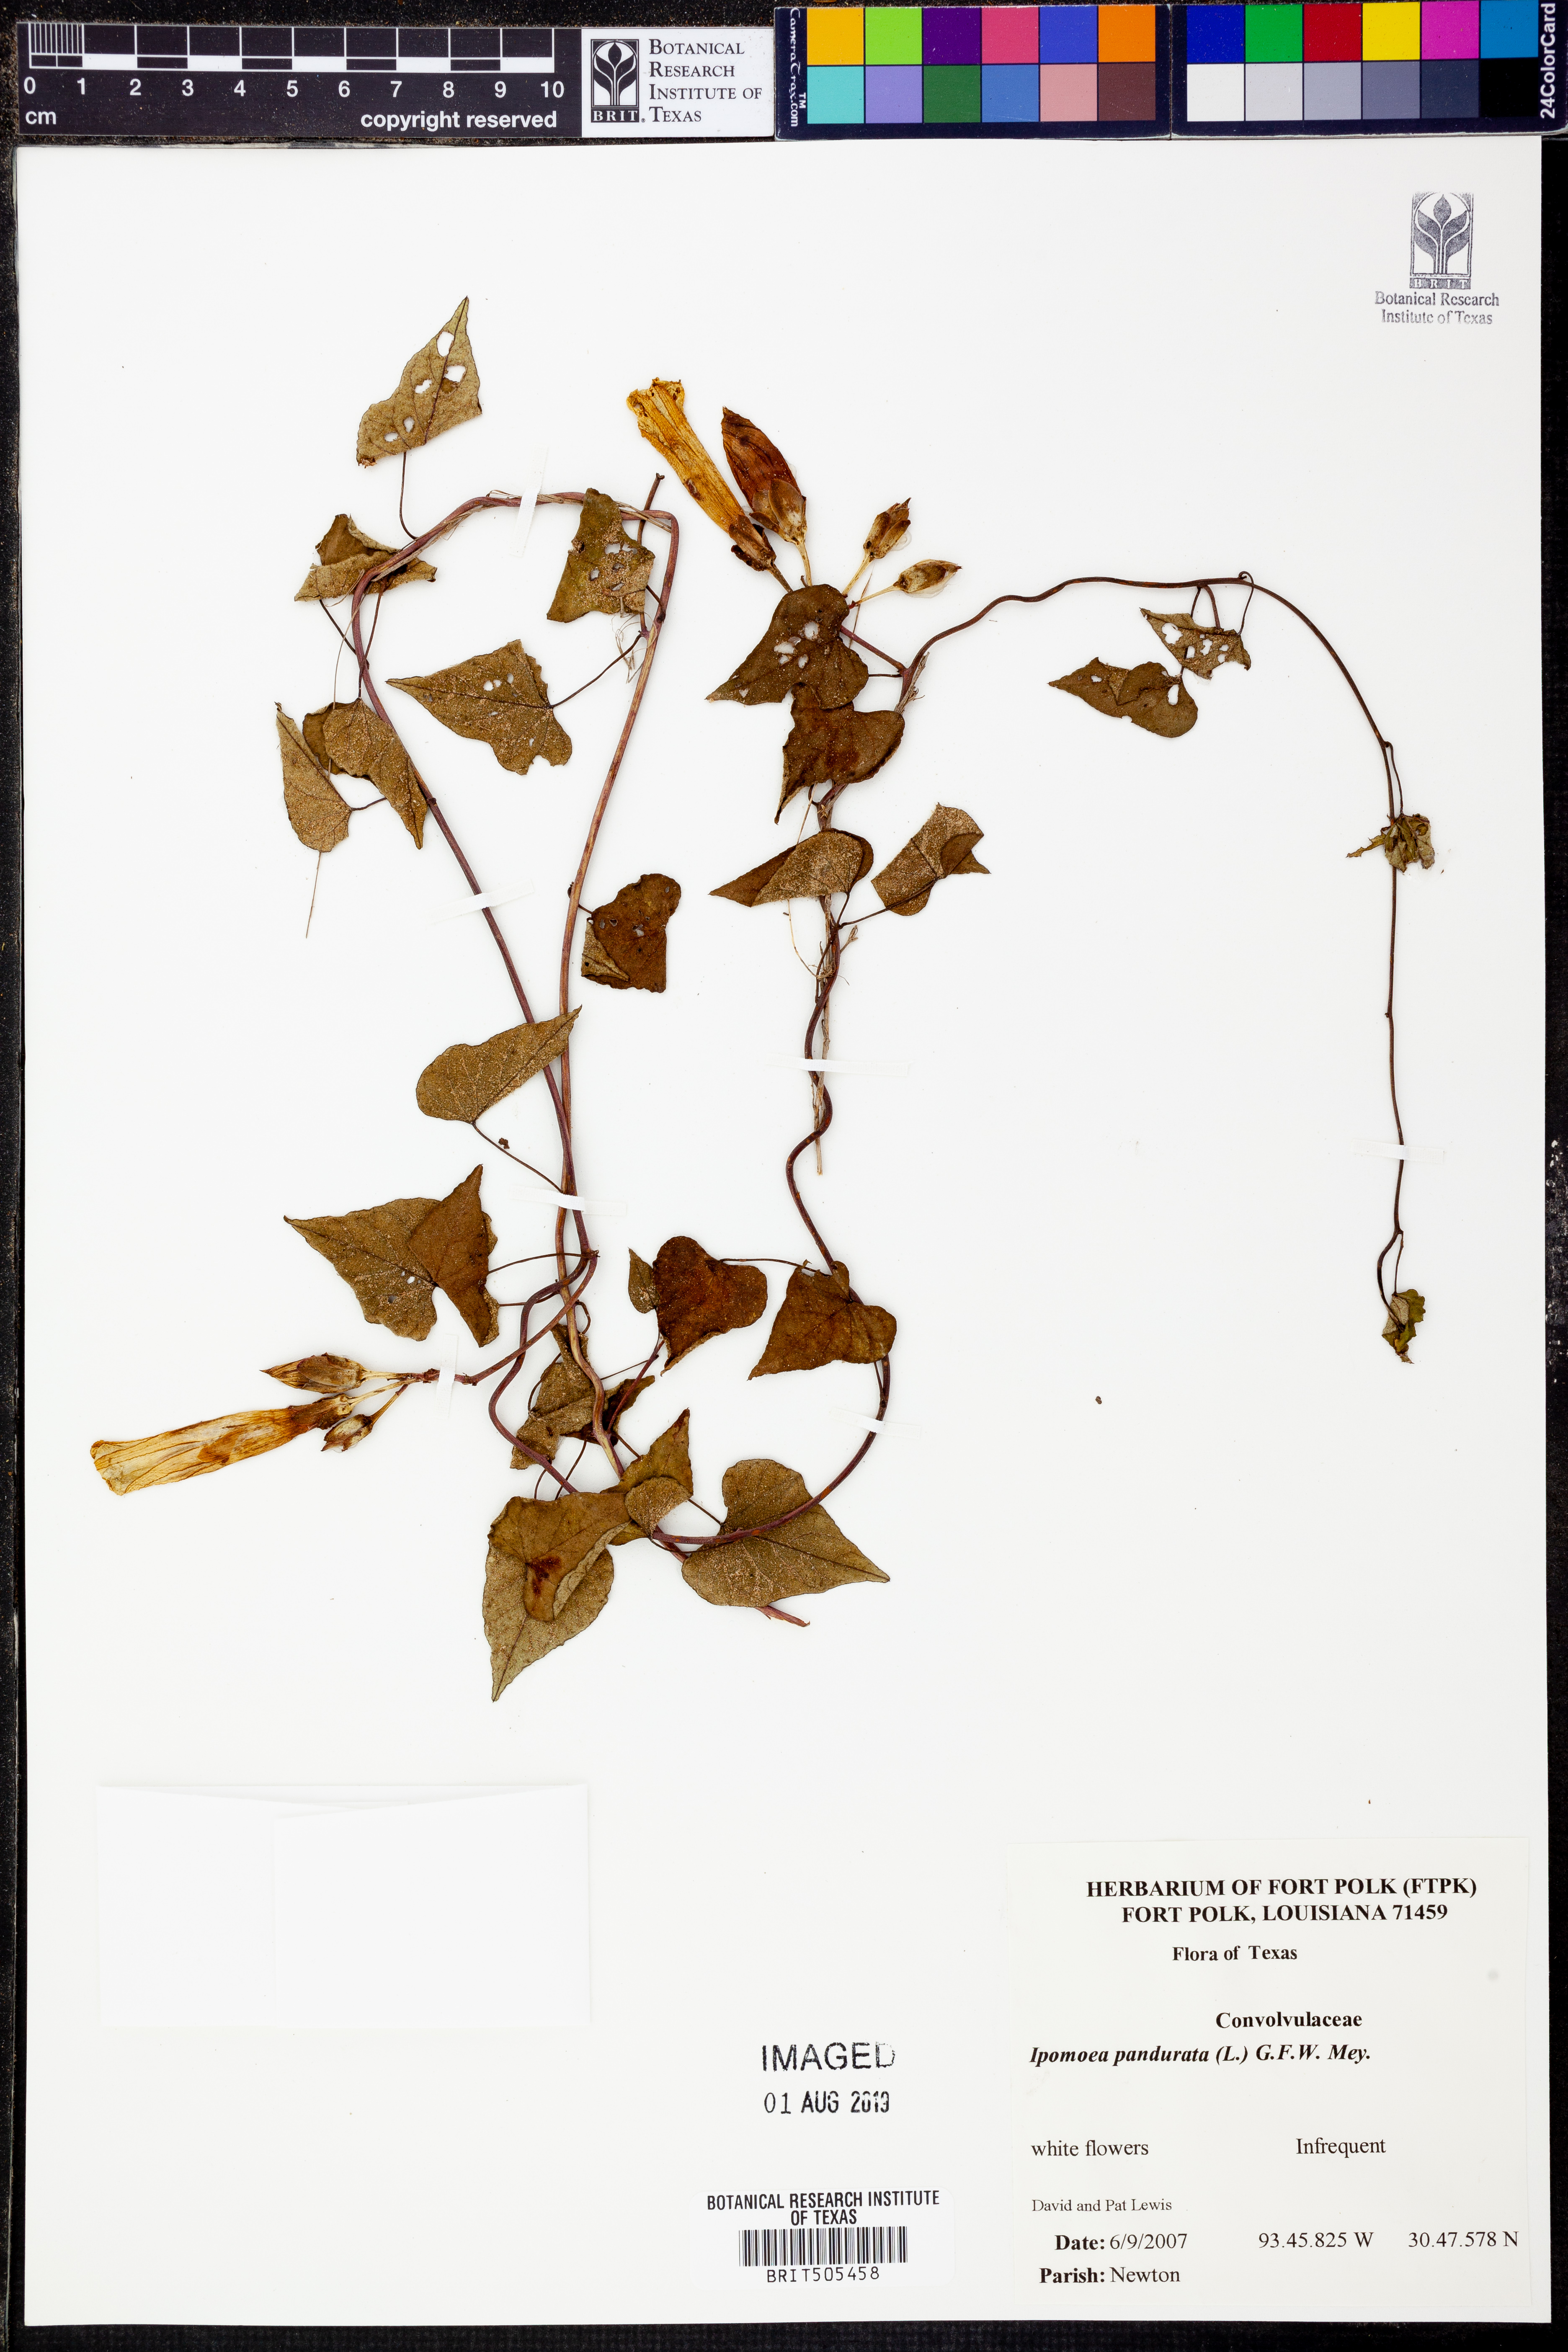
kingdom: Plantae
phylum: Tracheophyta
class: Magnoliopsida
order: Solanales
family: Convolvulaceae
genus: Ipomoea
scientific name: Ipomoea pandurata
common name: Man-of-the-earth
